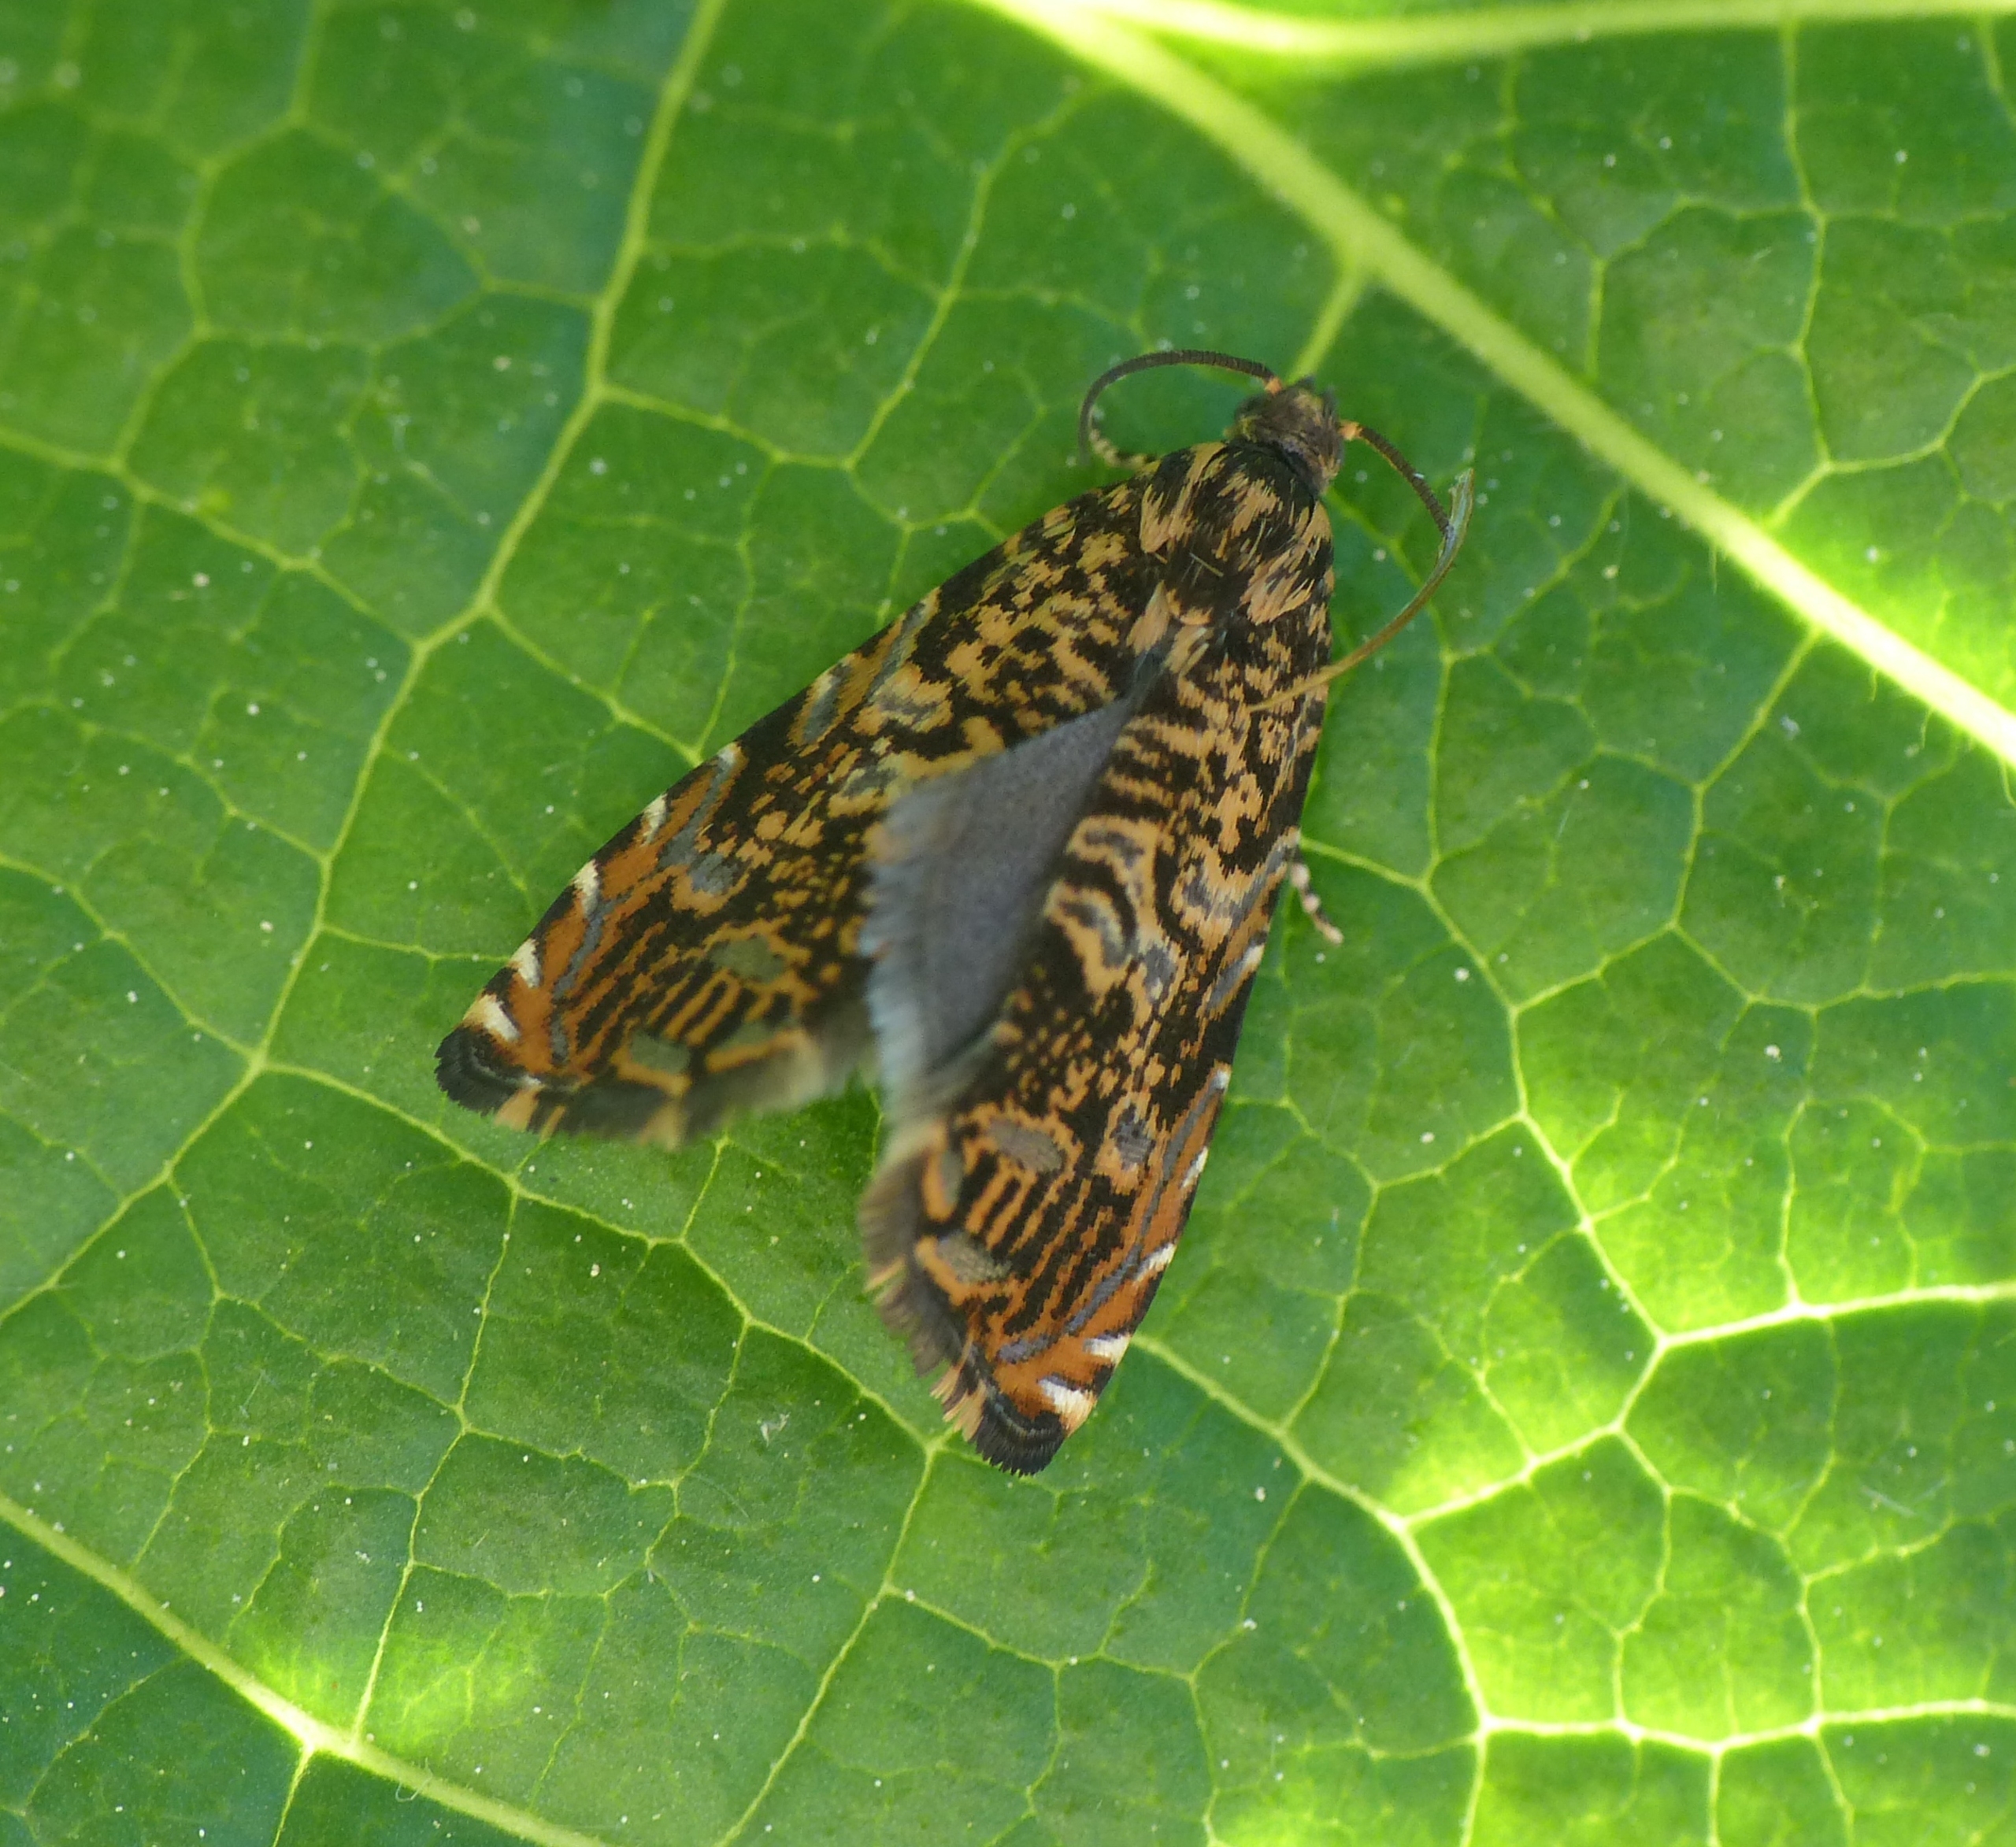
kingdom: Animalia
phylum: Arthropoda
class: Insecta
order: Lepidoptera
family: Tortricidae
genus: Enarmonia
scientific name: Enarmonia formosana
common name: Barkvikler
